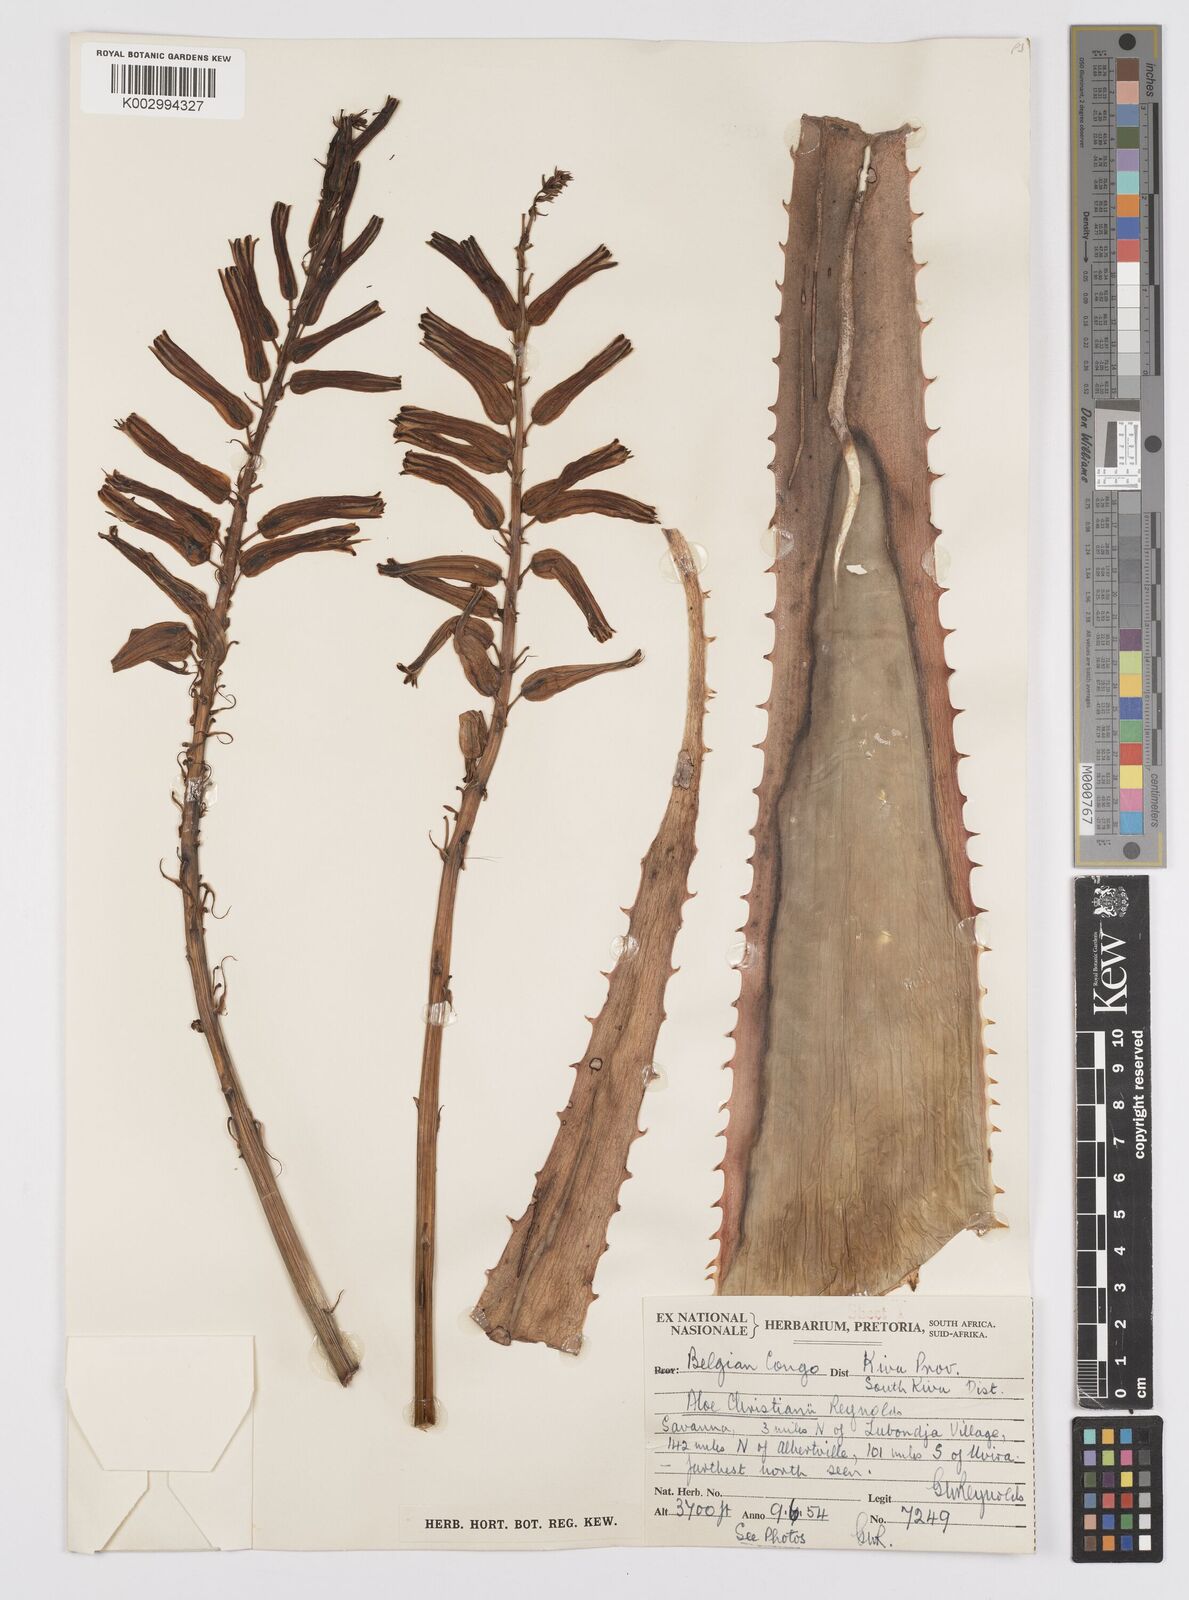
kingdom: Plantae
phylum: Tracheophyta
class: Liliopsida
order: Asparagales
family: Asphodelaceae
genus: Aloe
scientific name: Aloe christianii
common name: Basil christian's aloe
